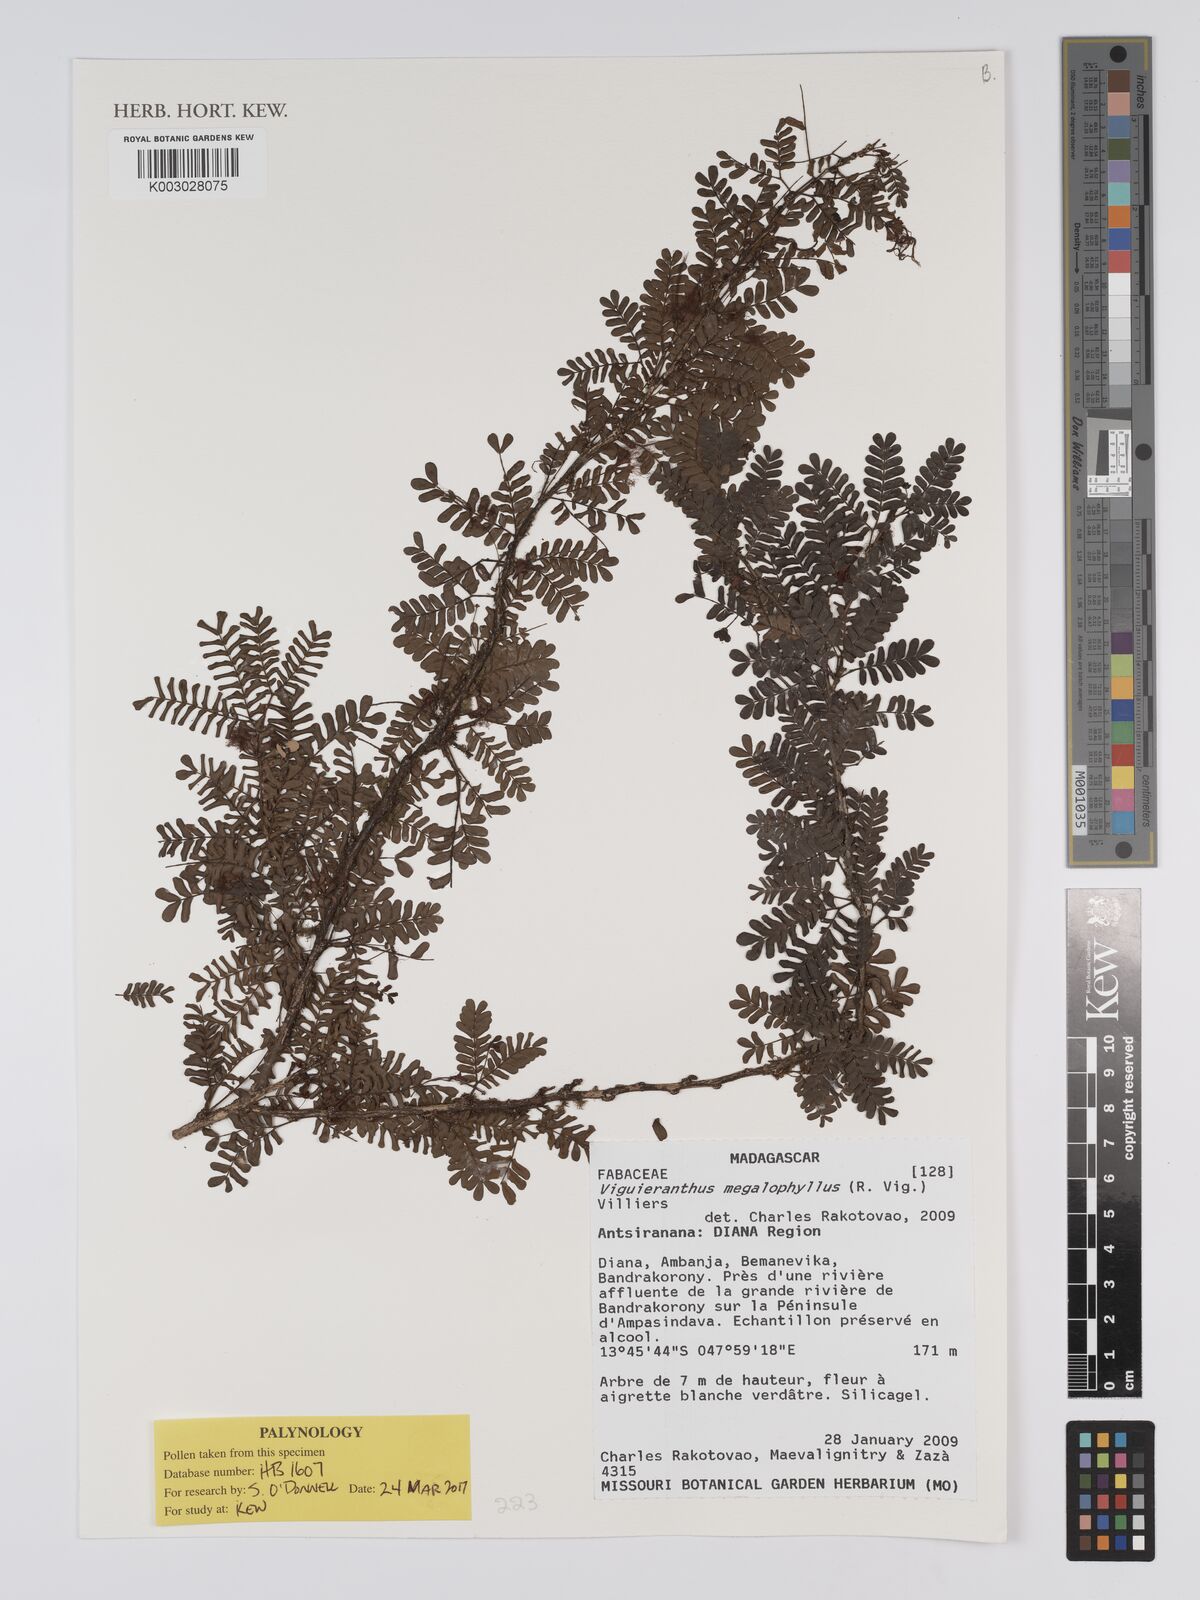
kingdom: Plantae
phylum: Tracheophyta
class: Magnoliopsida
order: Fabales
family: Fabaceae
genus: Viguieranthus
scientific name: Viguieranthus megalophyllus
